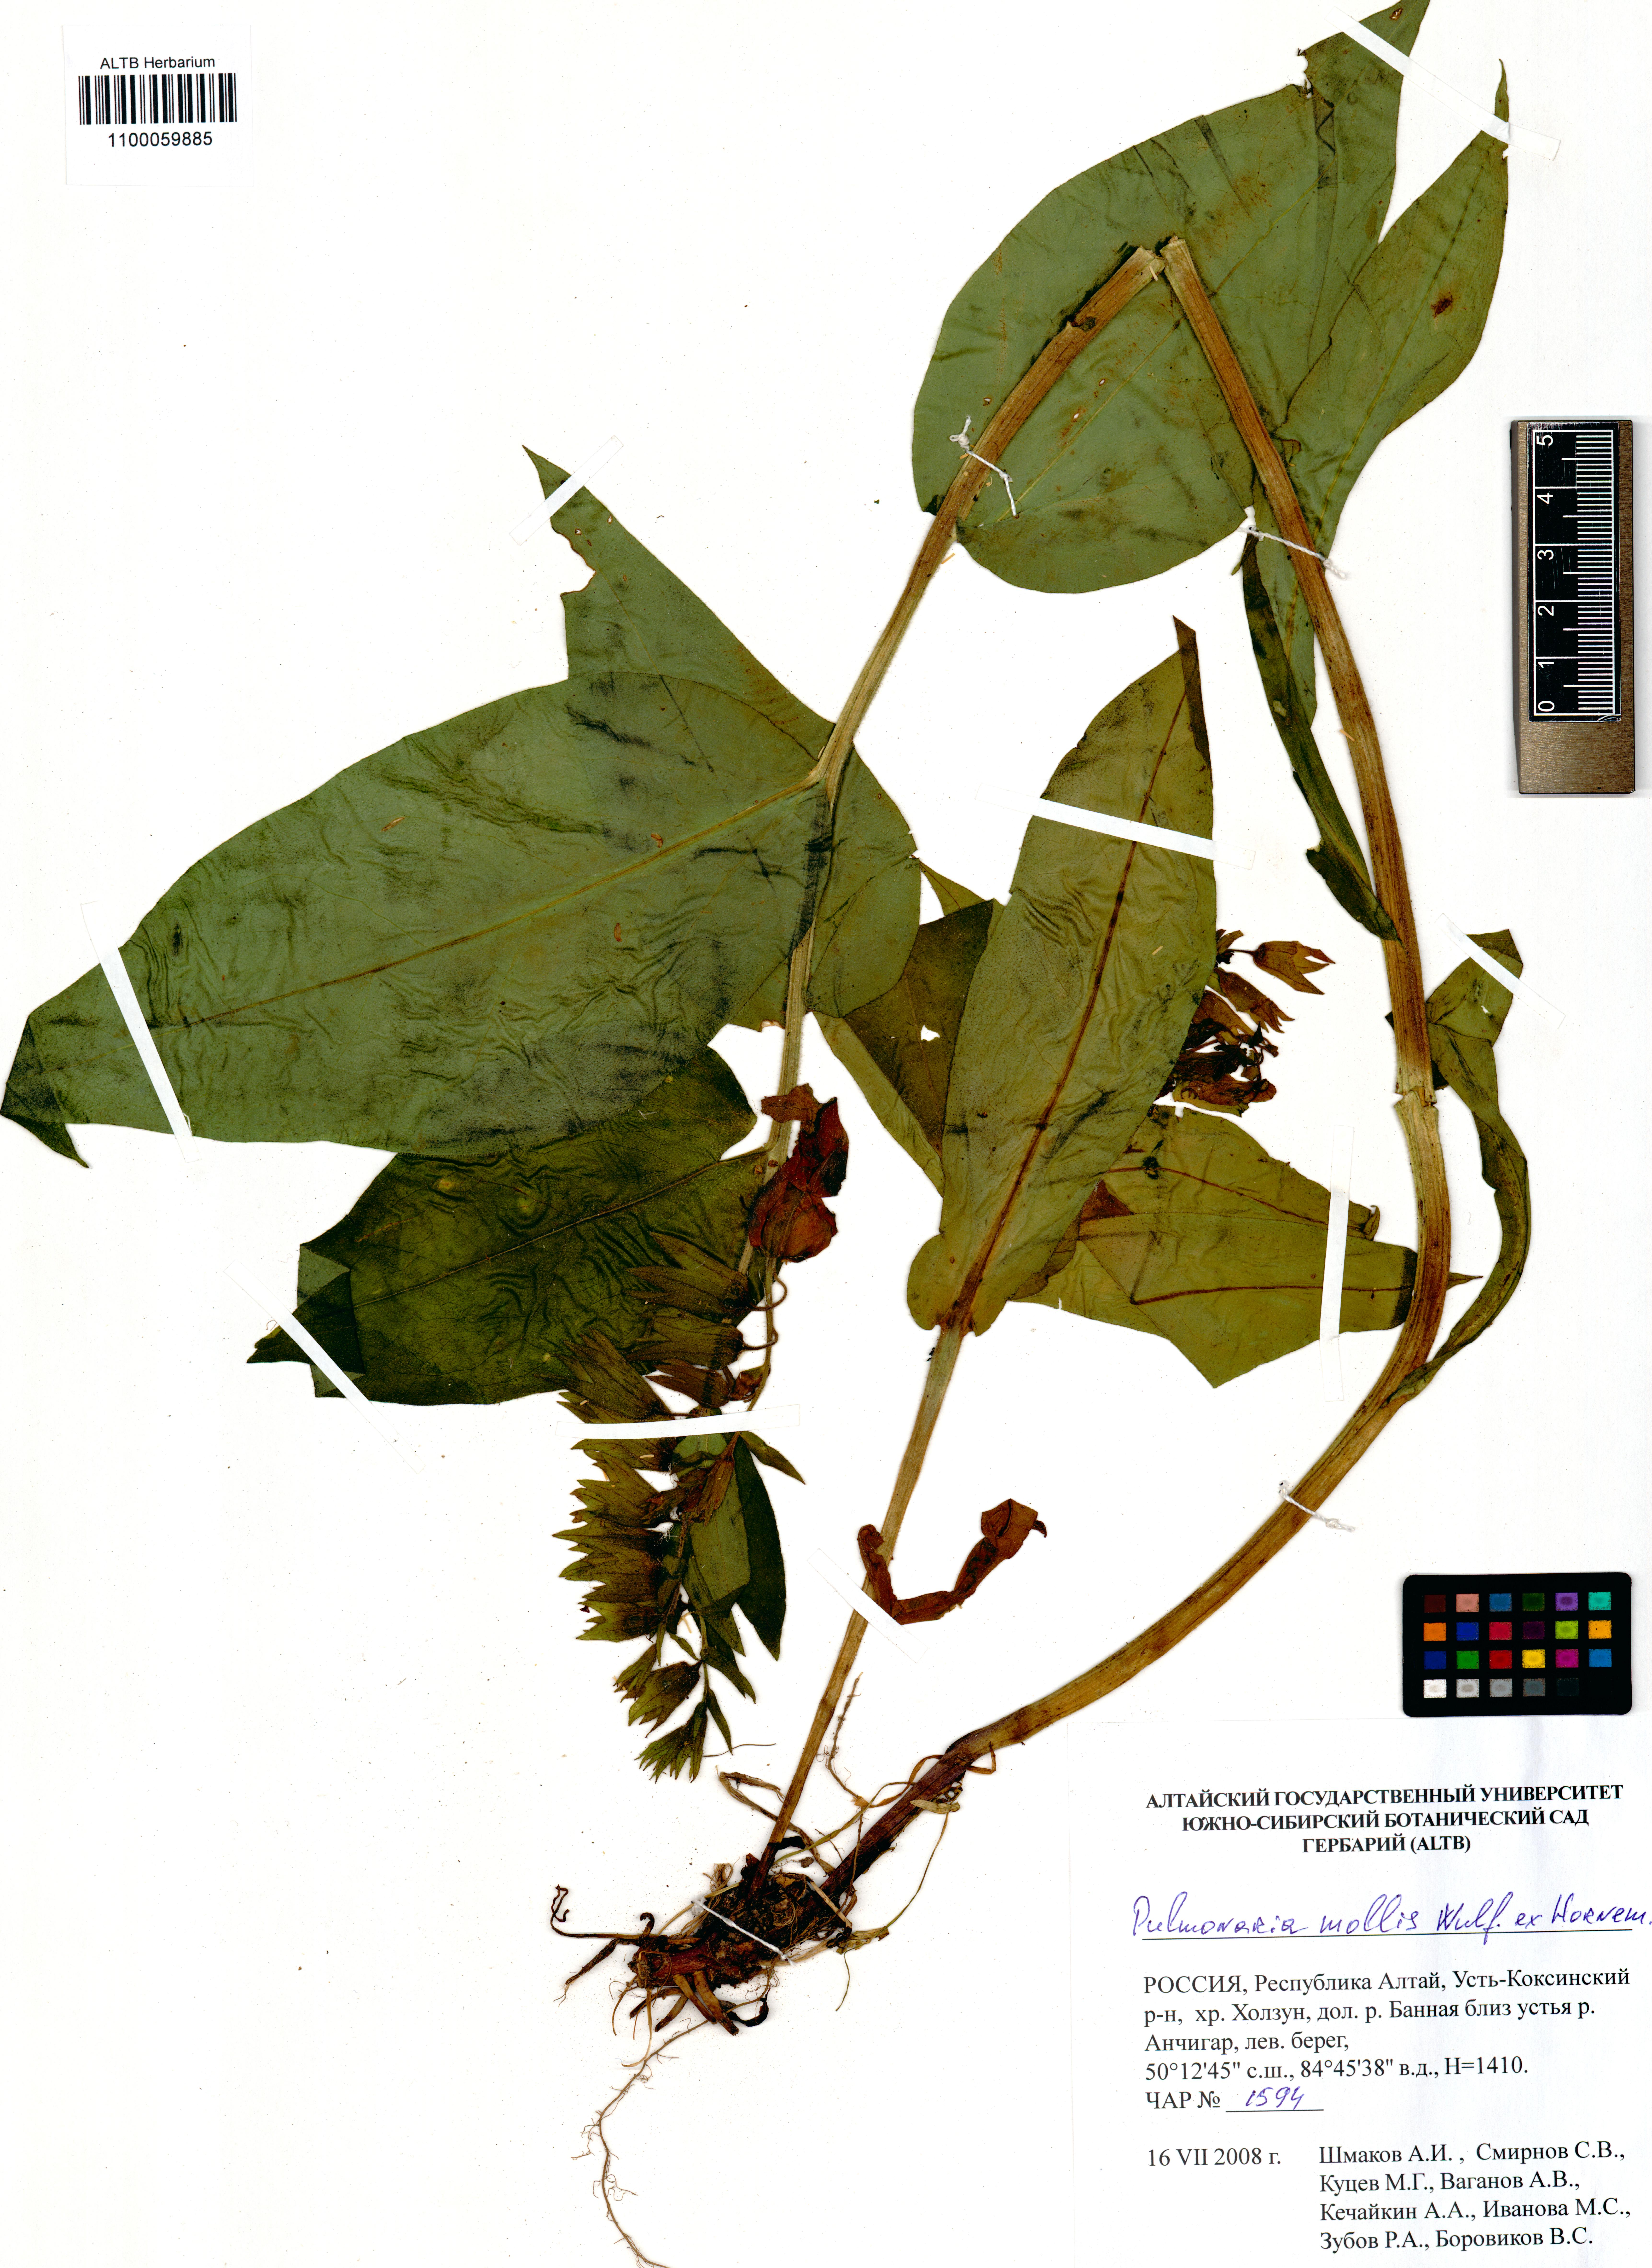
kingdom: Plantae
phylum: Tracheophyta
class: Magnoliopsida
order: Boraginales
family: Boraginaceae
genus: Pulmonaria
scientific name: Pulmonaria mollis
